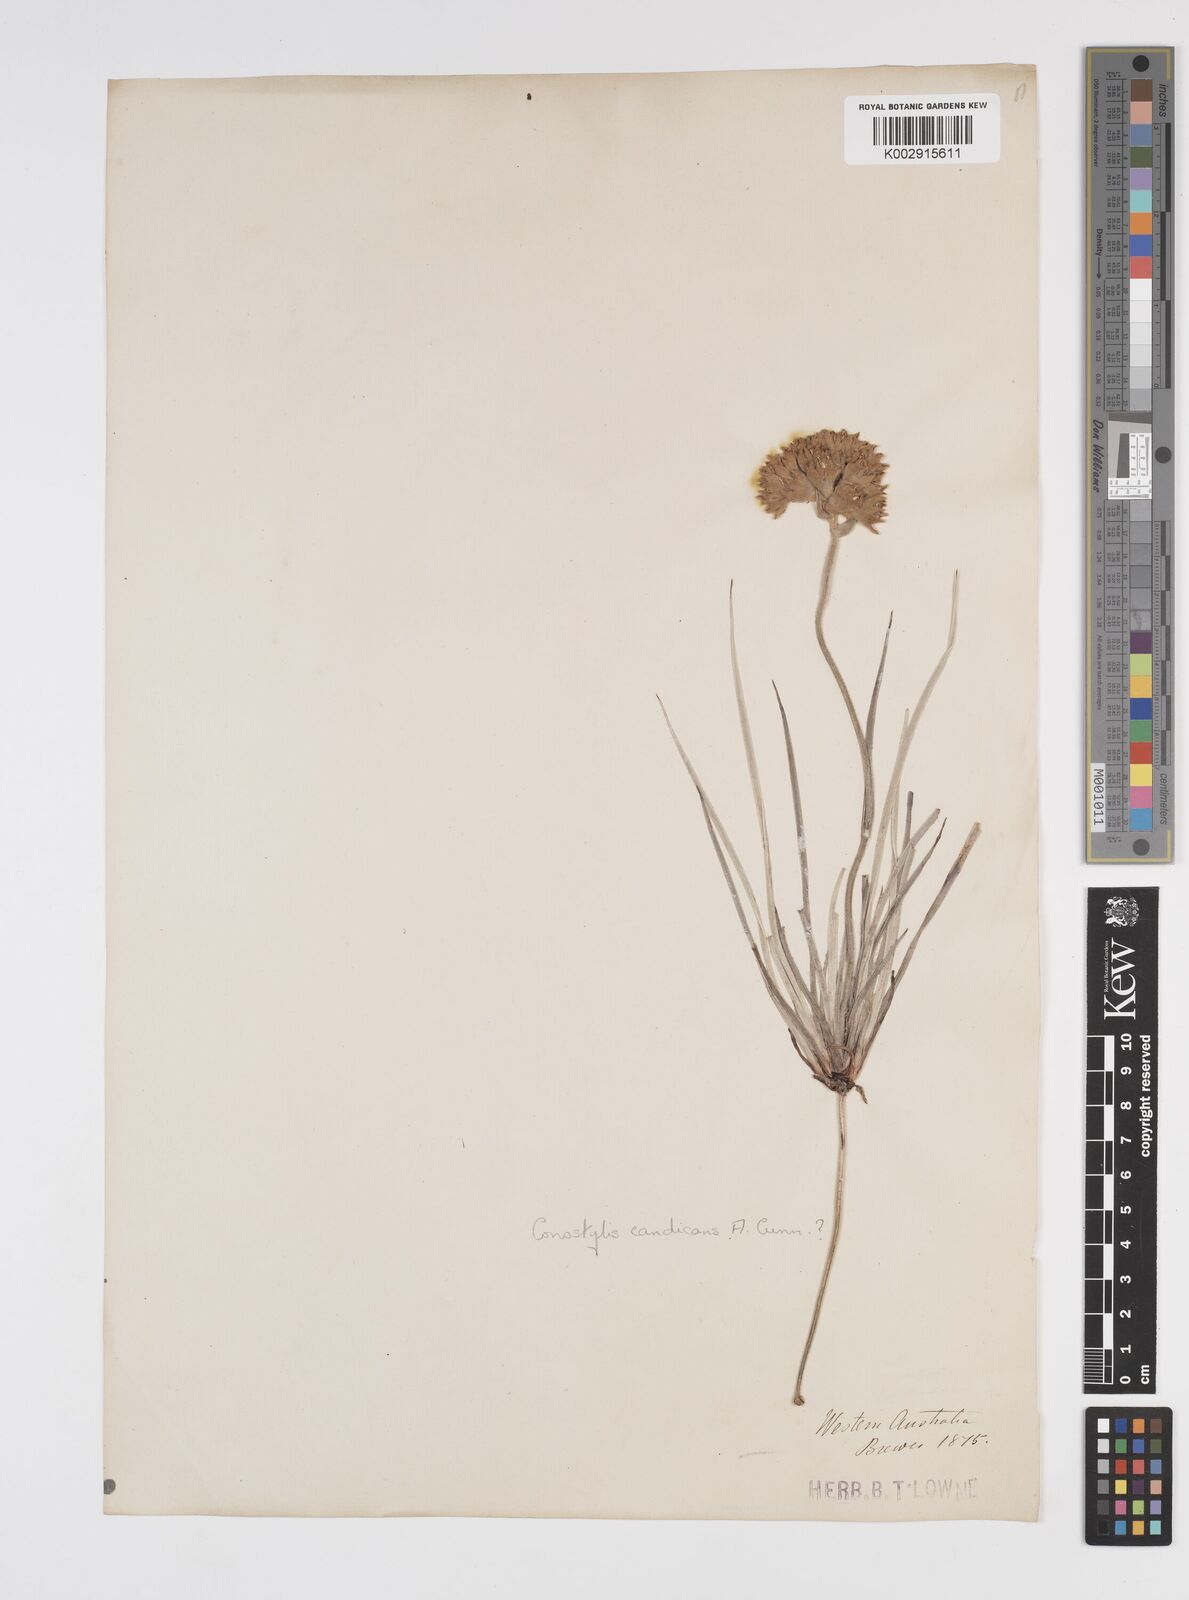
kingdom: Plantae
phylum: Tracheophyta
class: Liliopsida
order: Commelinales
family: Haemodoraceae
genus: Conostylis
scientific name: Conostylis candicans
